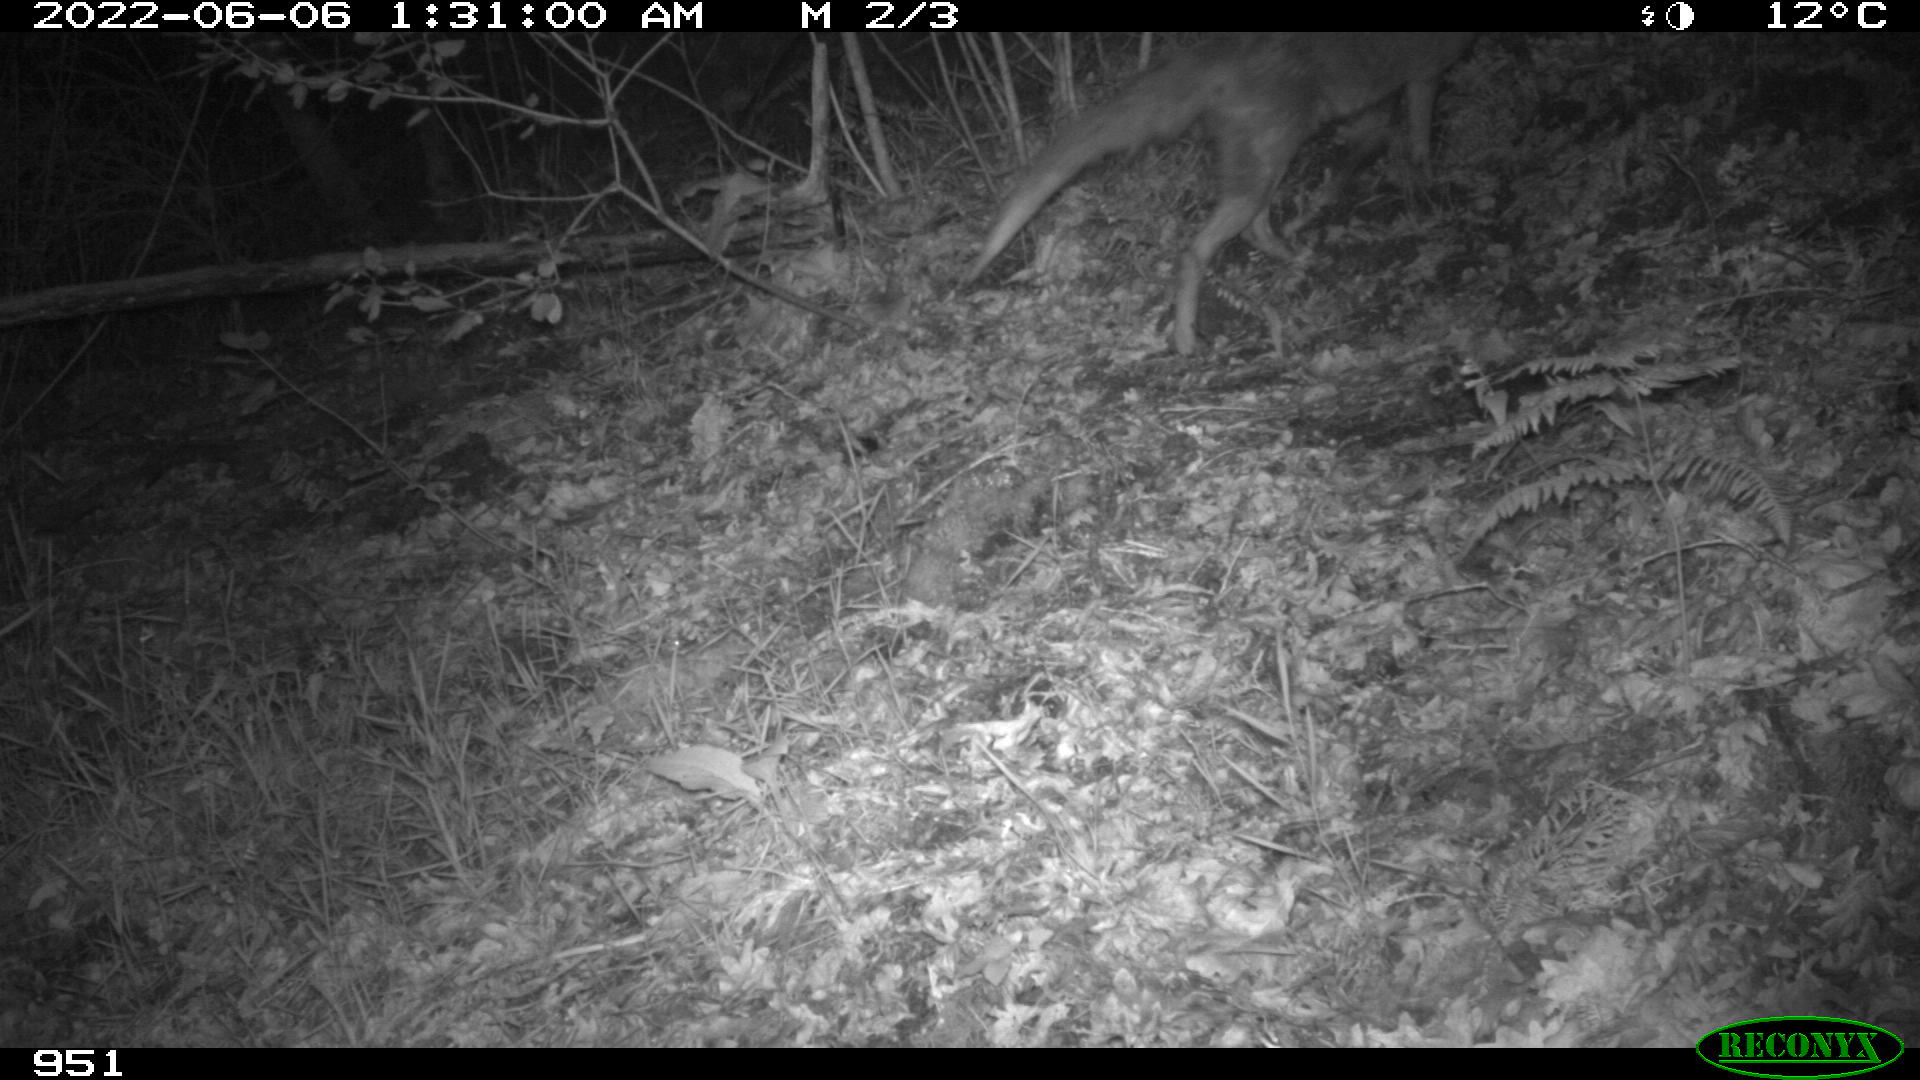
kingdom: Animalia
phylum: Chordata
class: Mammalia
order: Carnivora
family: Canidae
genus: Vulpes
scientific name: Vulpes vulpes
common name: Red fox
